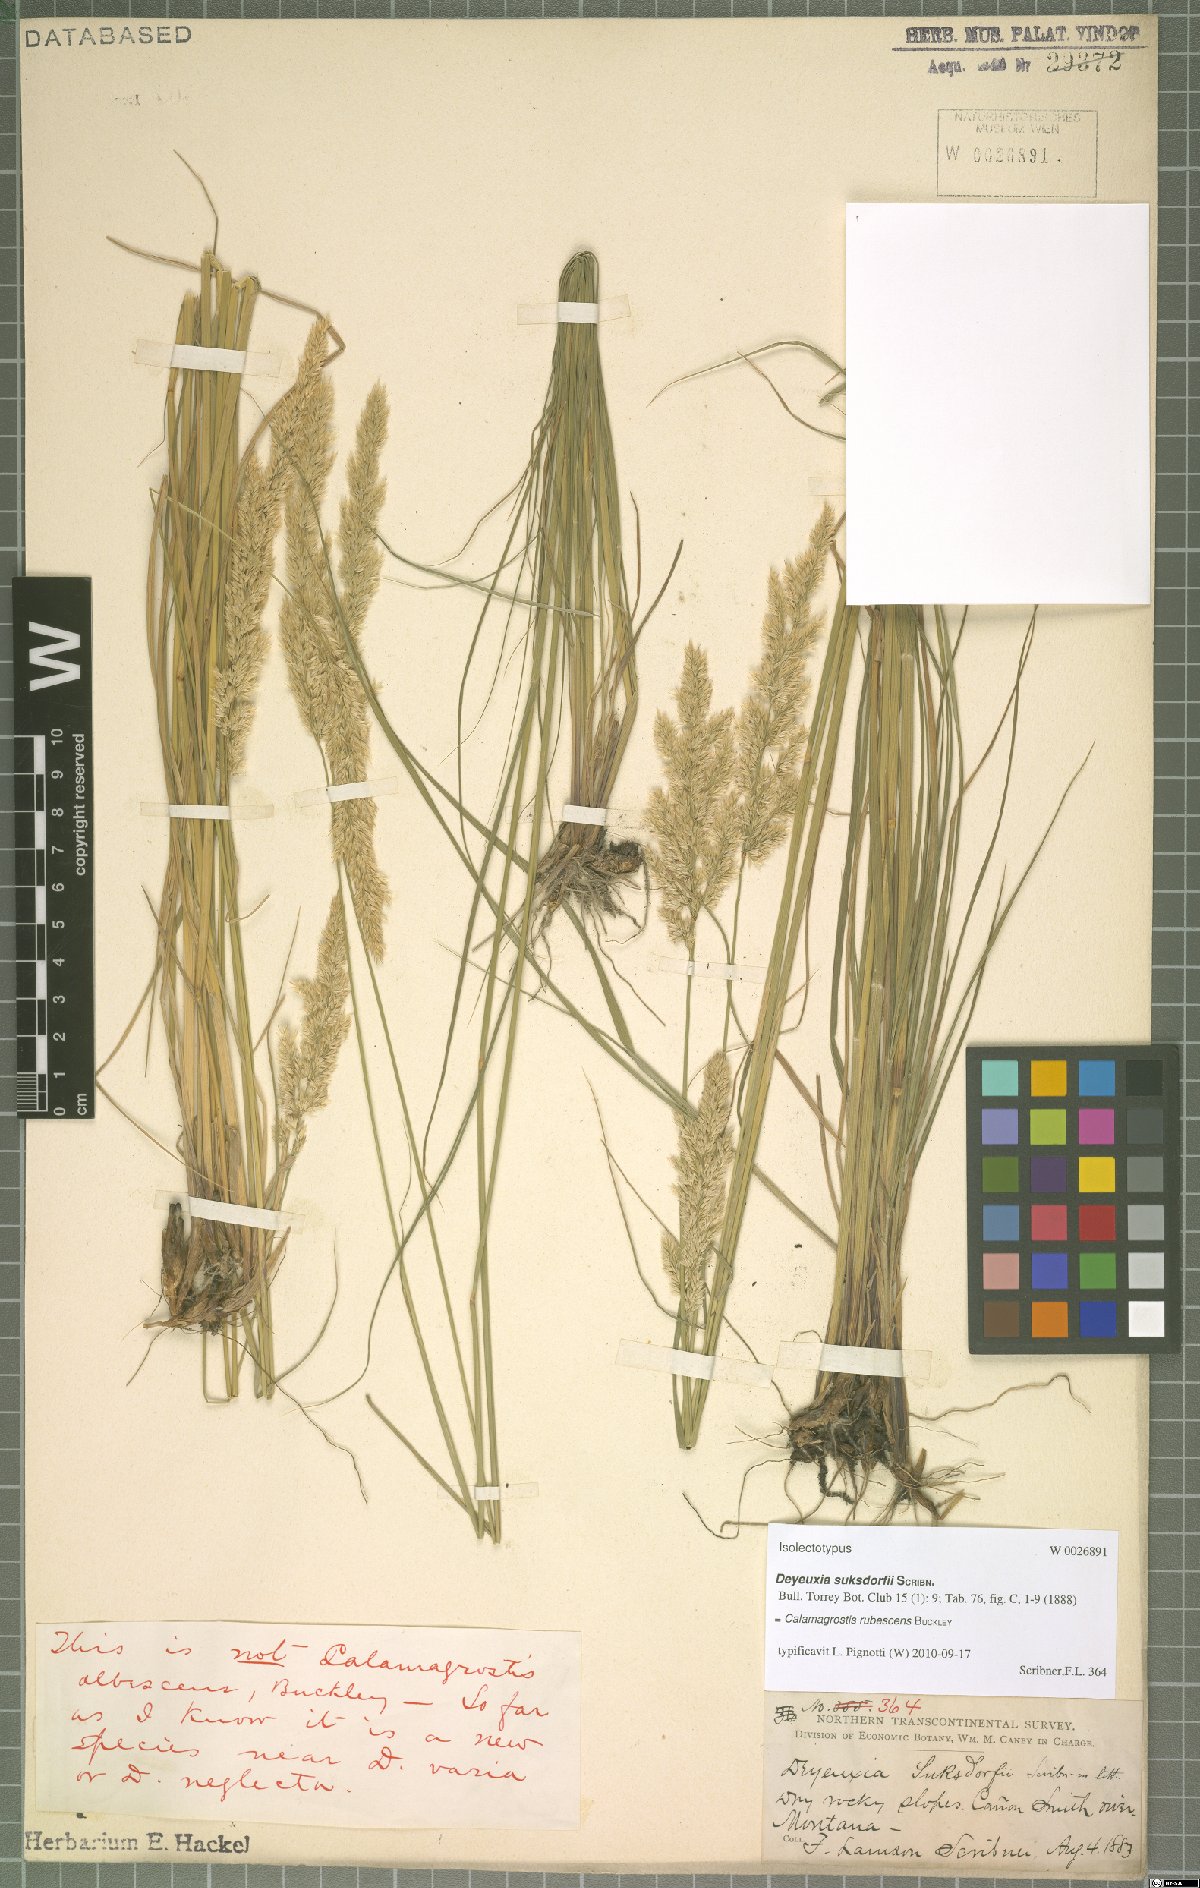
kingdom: Plantae
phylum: Tracheophyta
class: Liliopsida
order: Poales
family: Poaceae
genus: Calamagrostis
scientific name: Calamagrostis rubescens
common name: Pine grass
